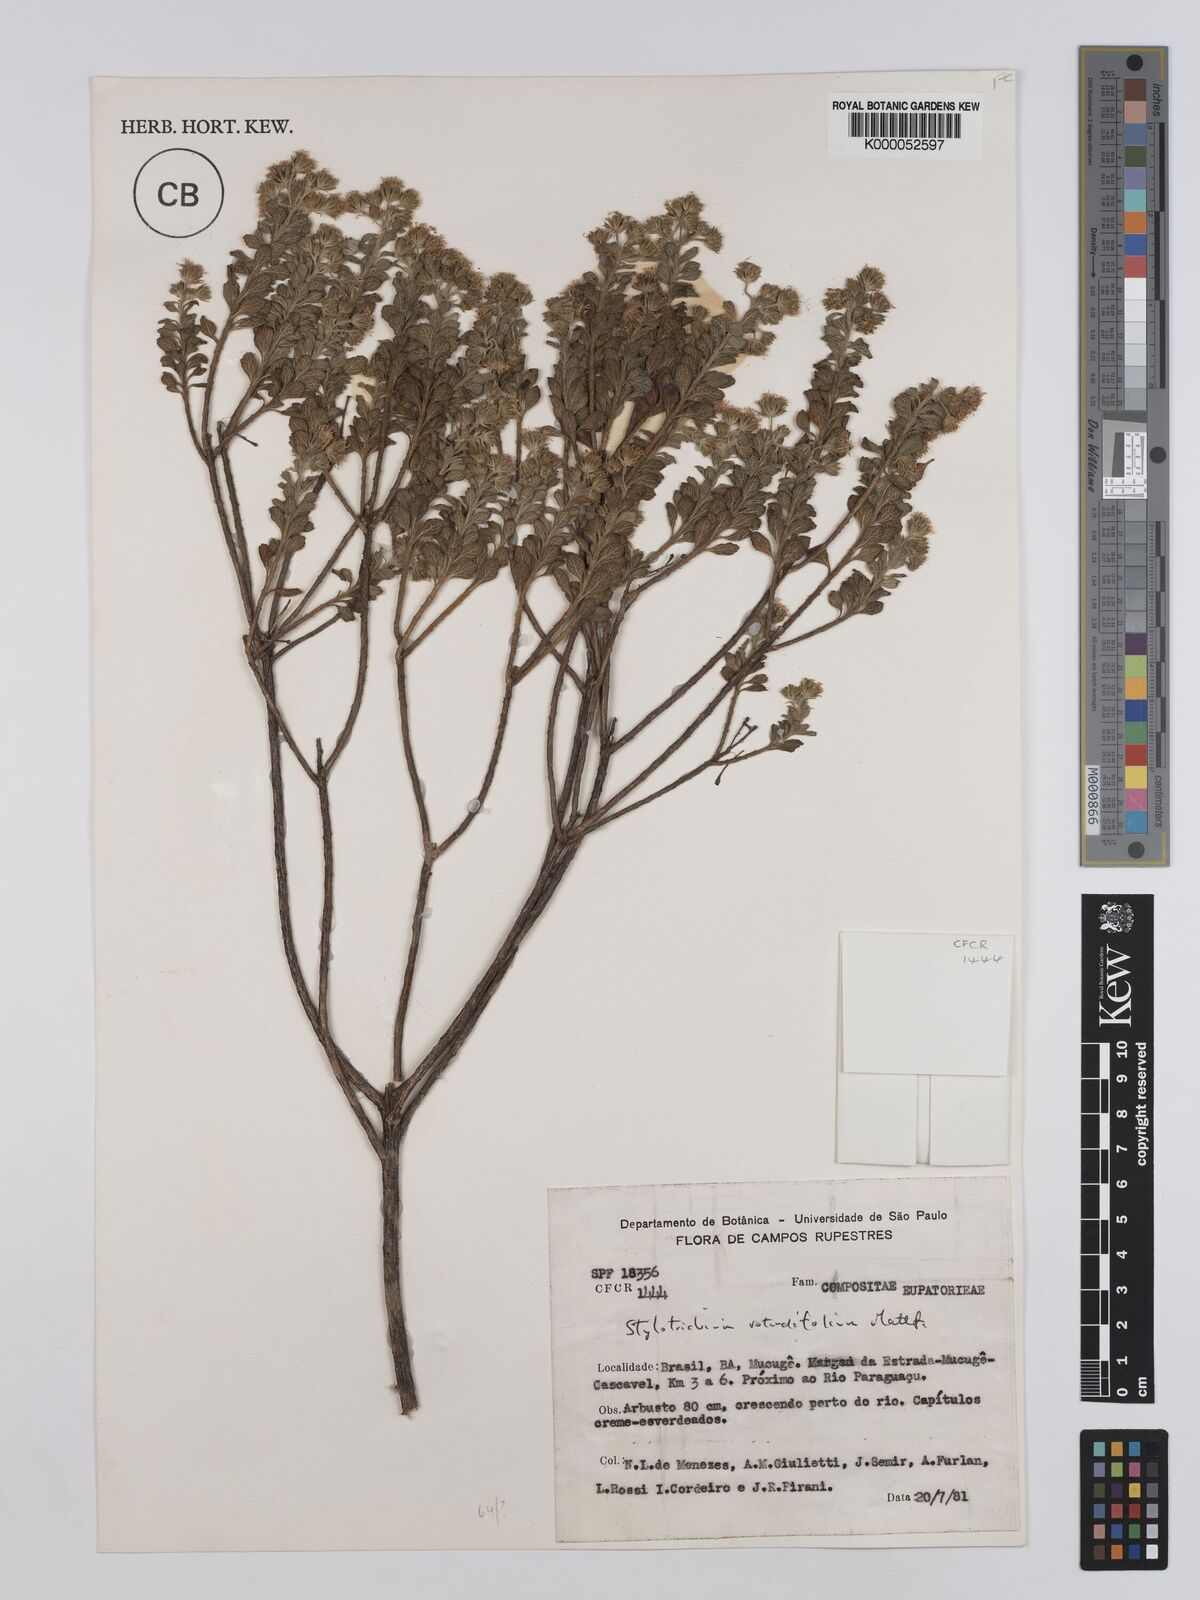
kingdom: Plantae
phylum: Tracheophyta
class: Magnoliopsida
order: Asterales
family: Asteraceae
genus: Stylotrichium
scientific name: Stylotrichium rotundifolium
